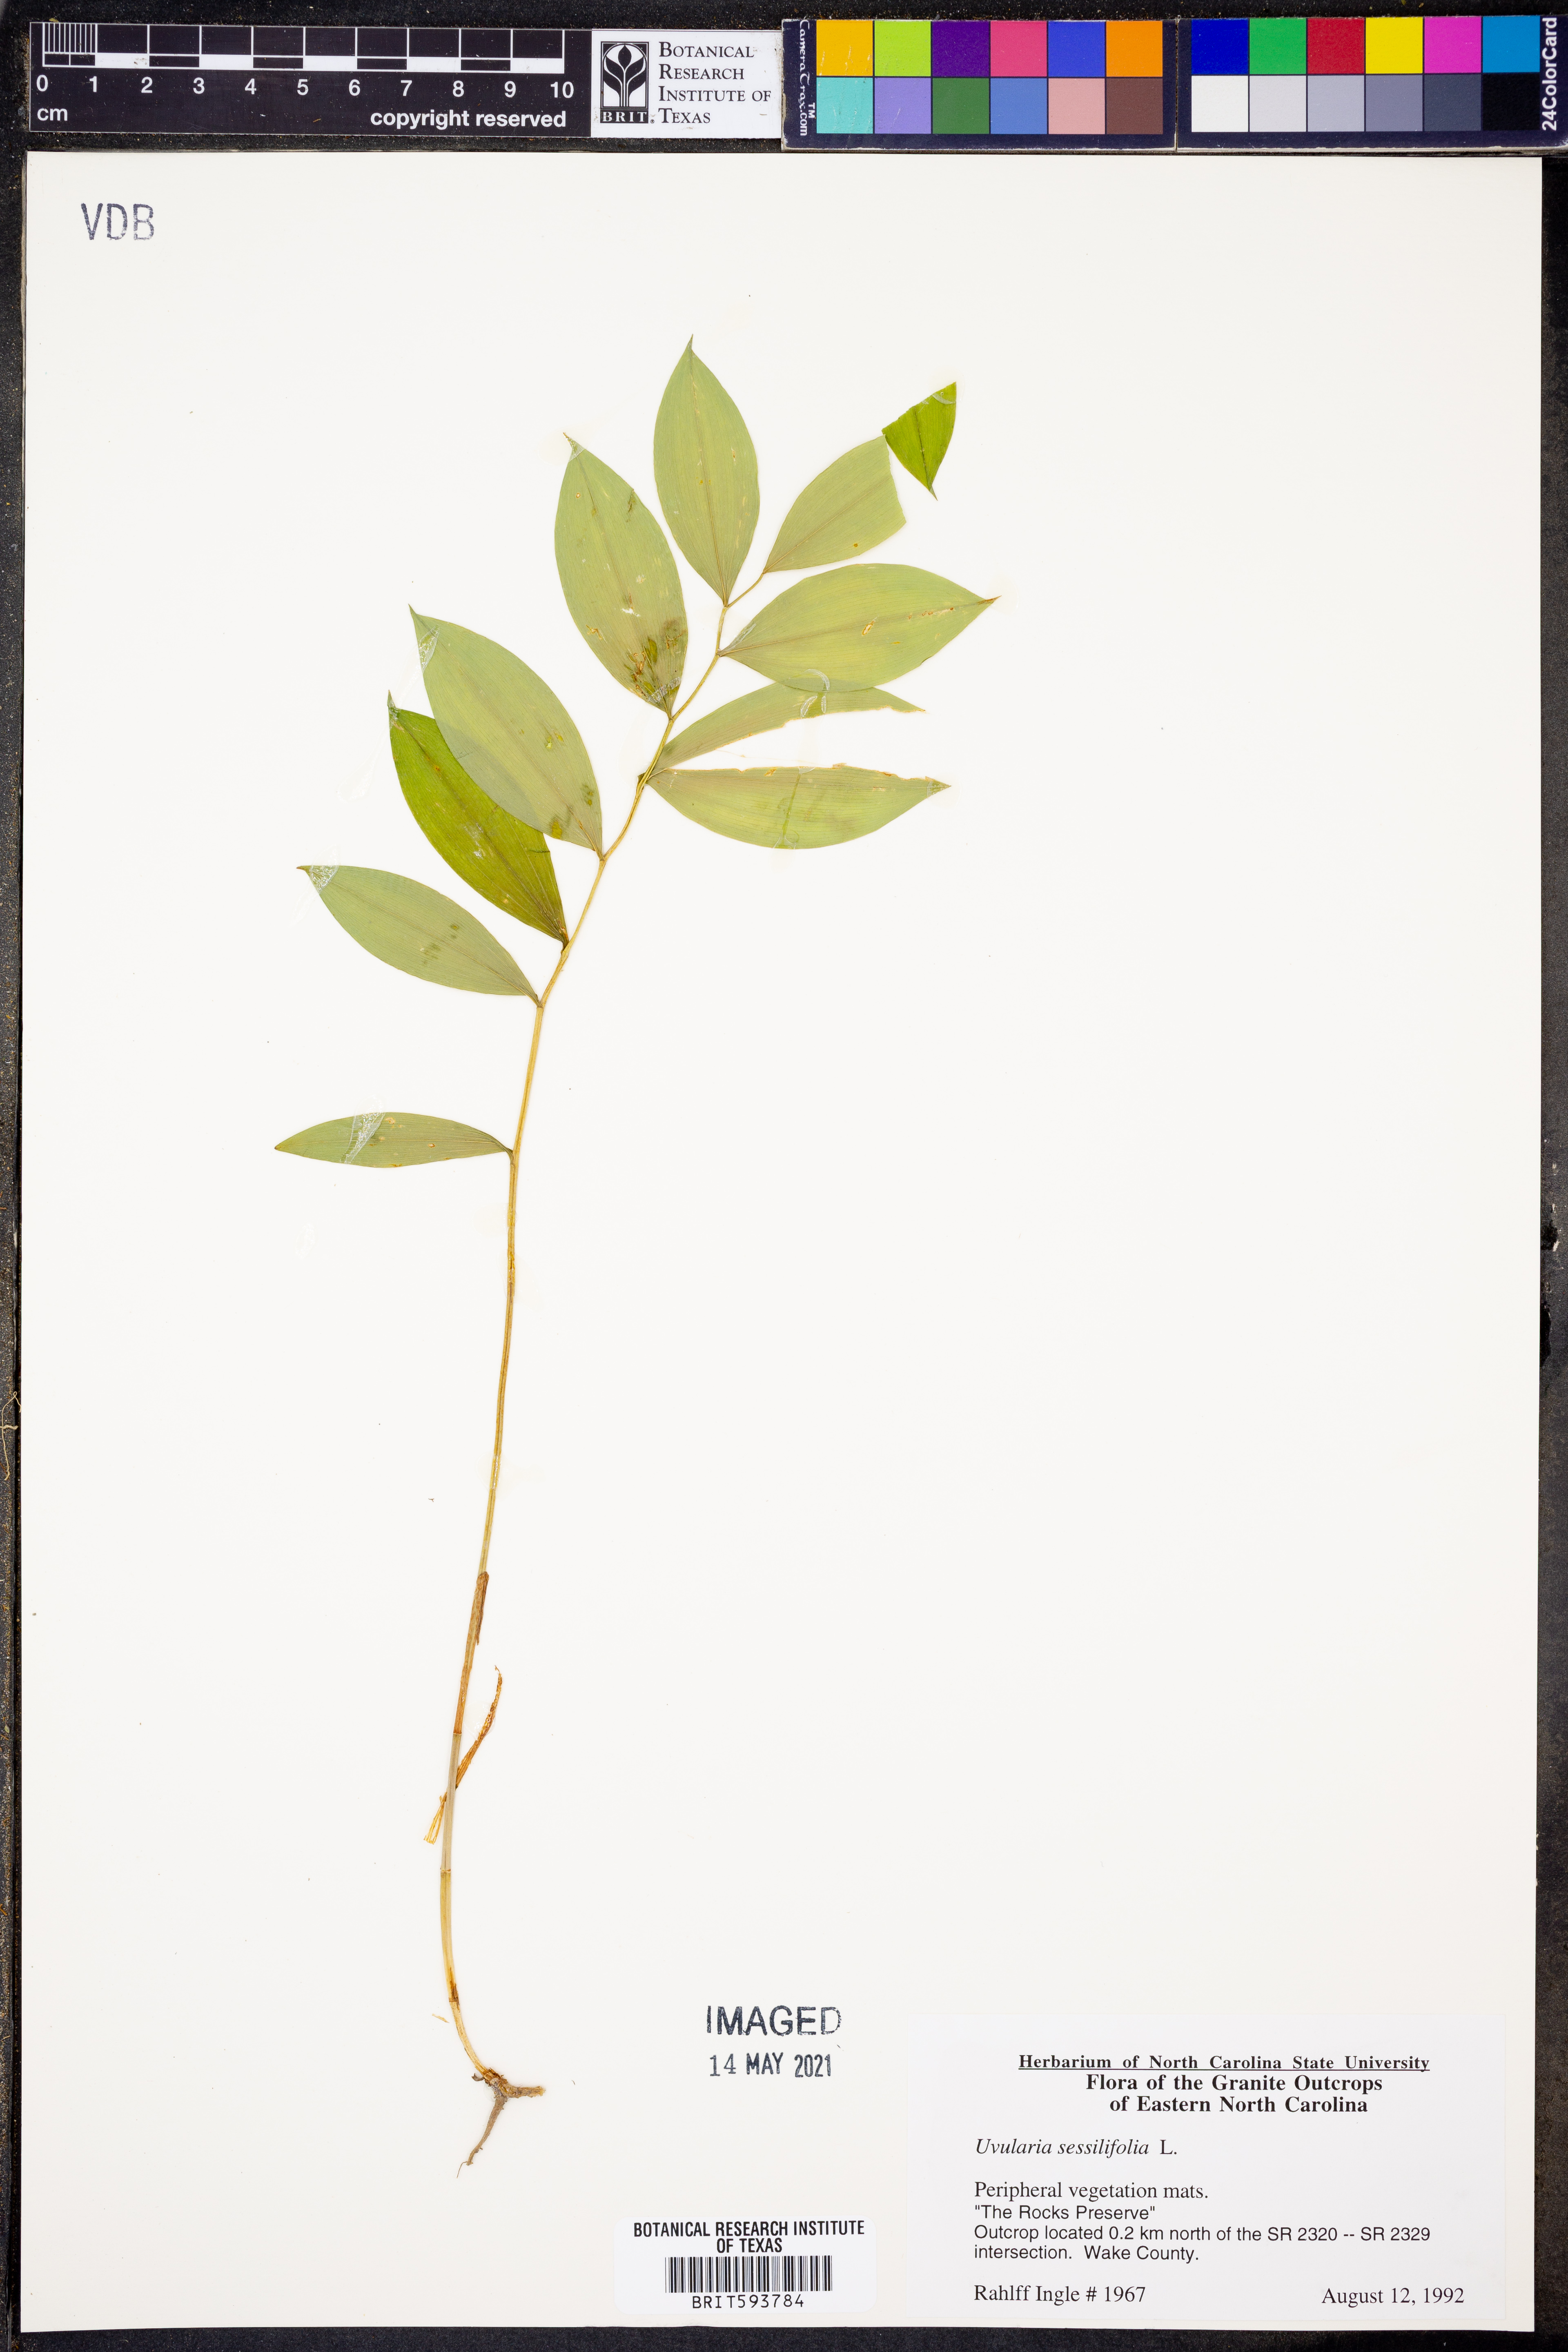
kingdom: Plantae
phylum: Tracheophyta
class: Liliopsida
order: Liliales
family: Colchicaceae
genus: Uvularia
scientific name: Uvularia sessilifolia
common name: Straw-lily
